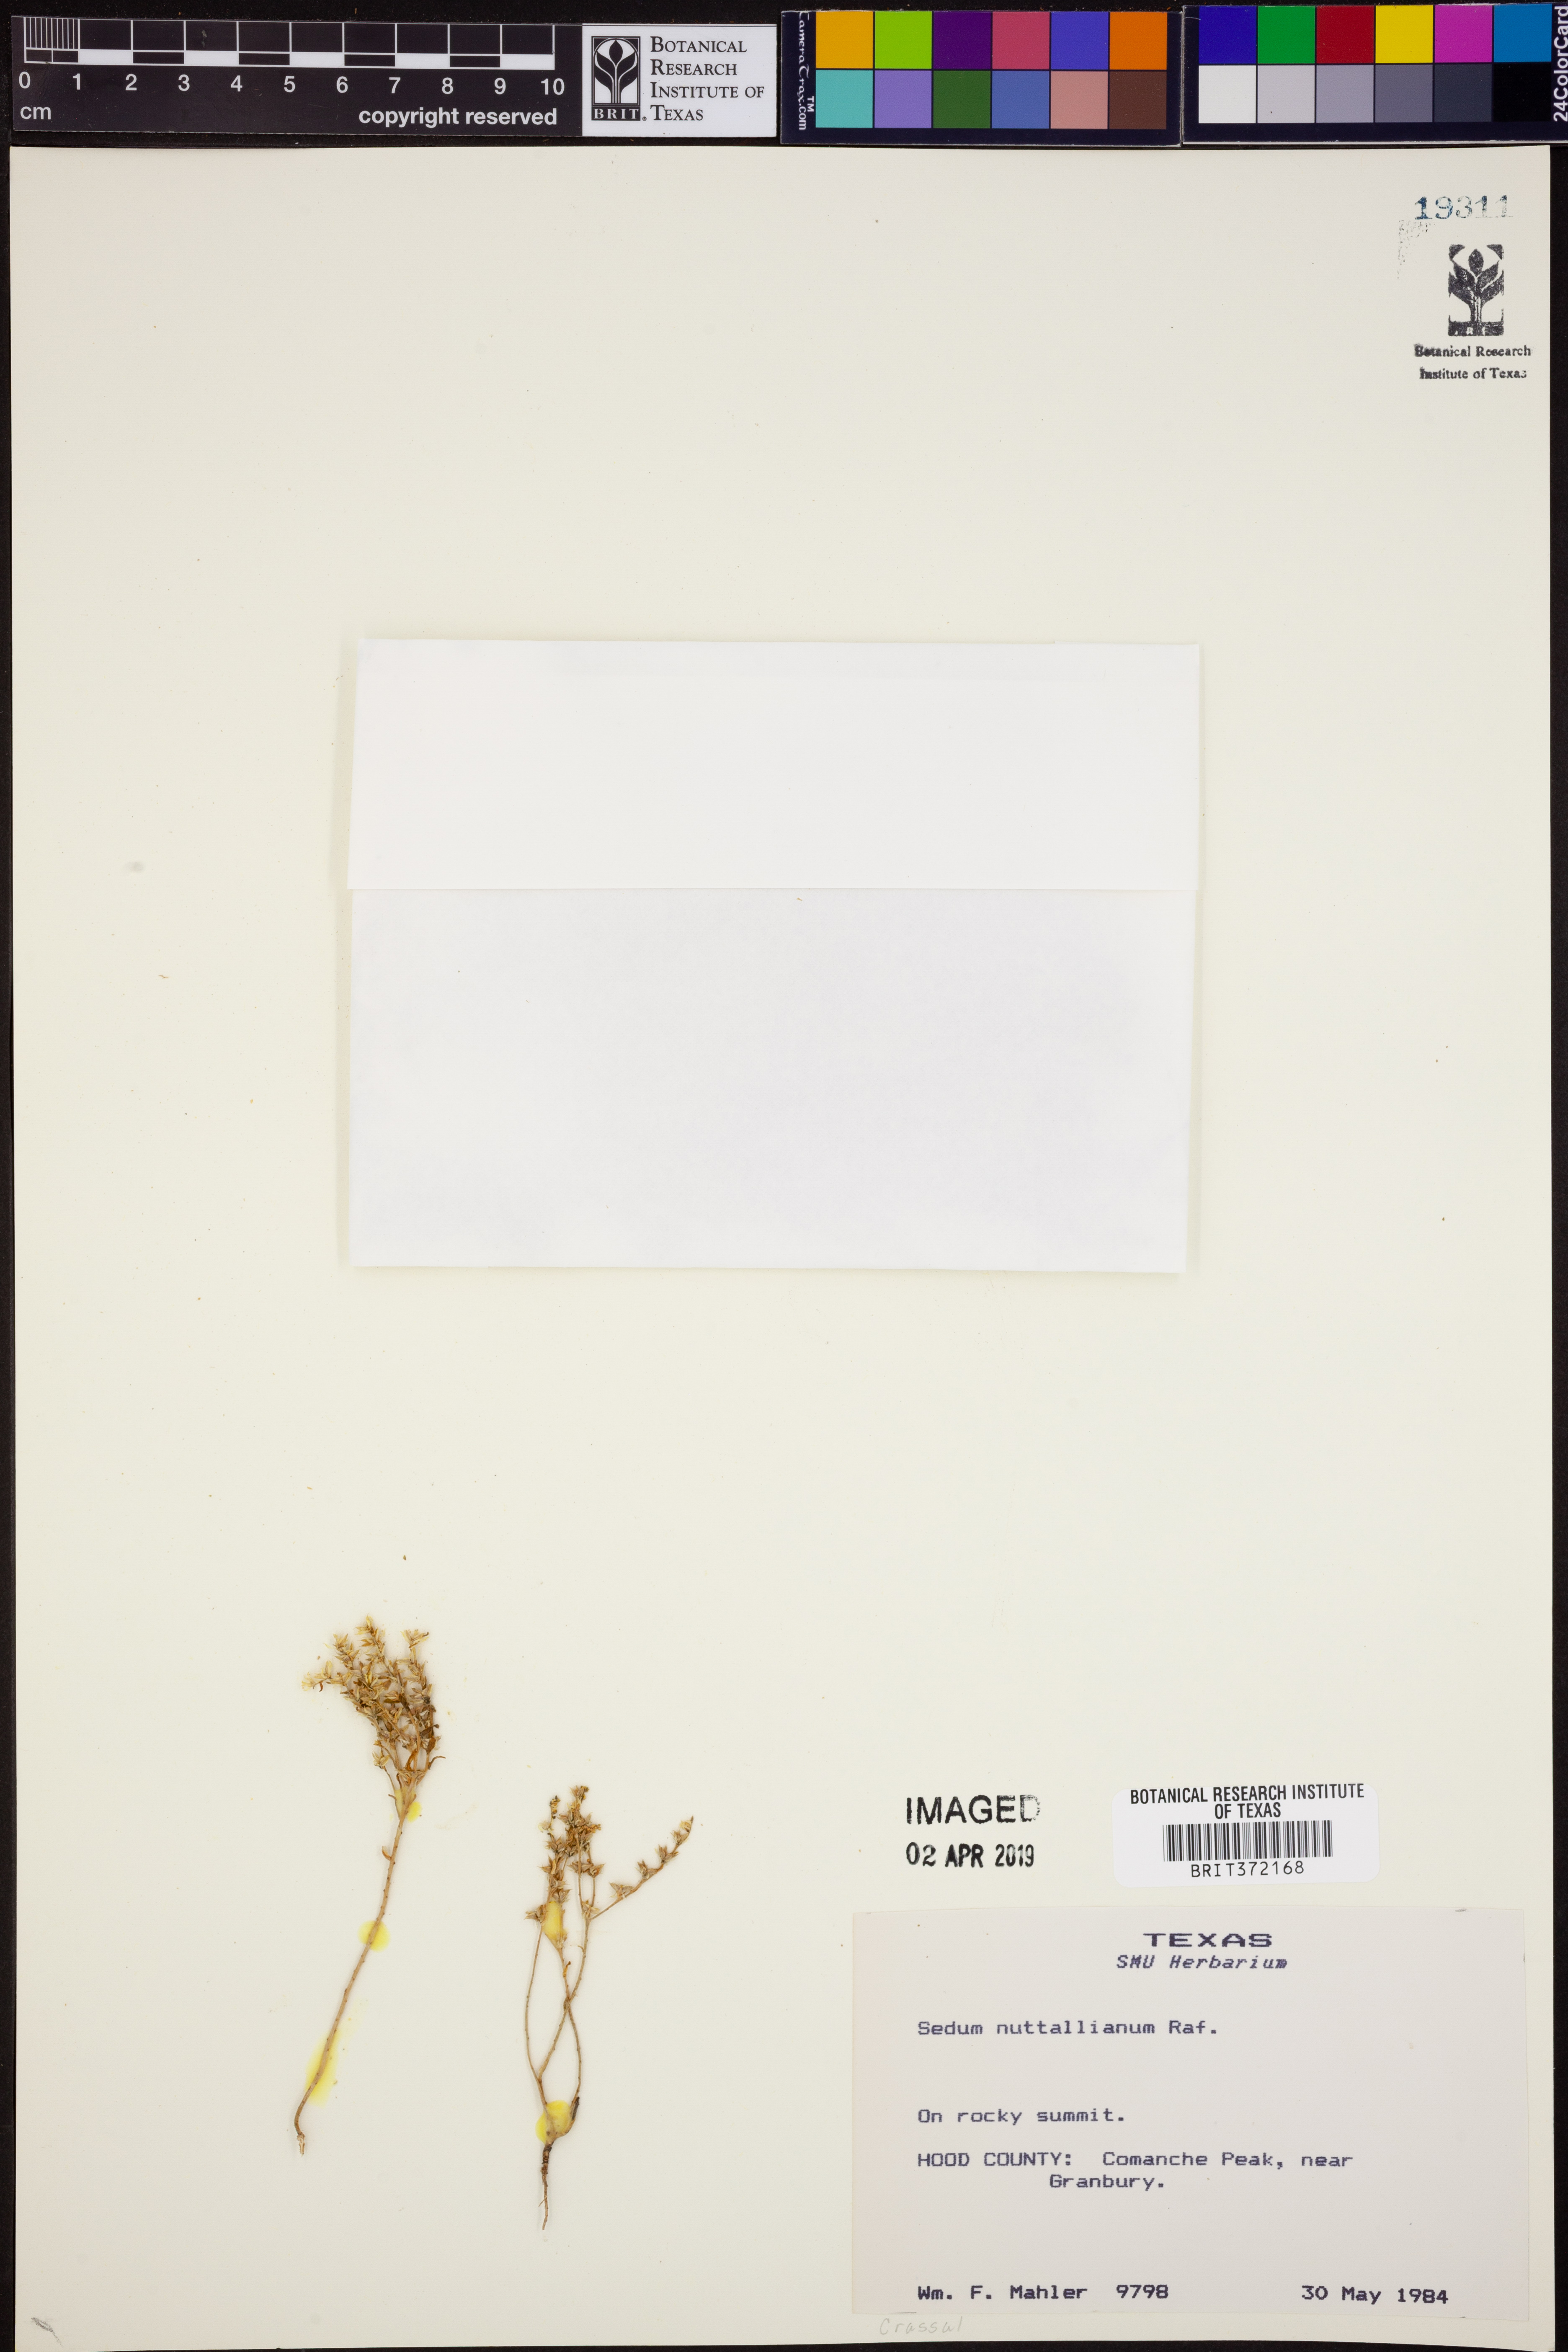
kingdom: Plantae
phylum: Tracheophyta
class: Magnoliopsida
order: Saxifragales
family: Crassulaceae
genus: Sedum
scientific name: Sedum nuttallii
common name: Yellow stonecrop
